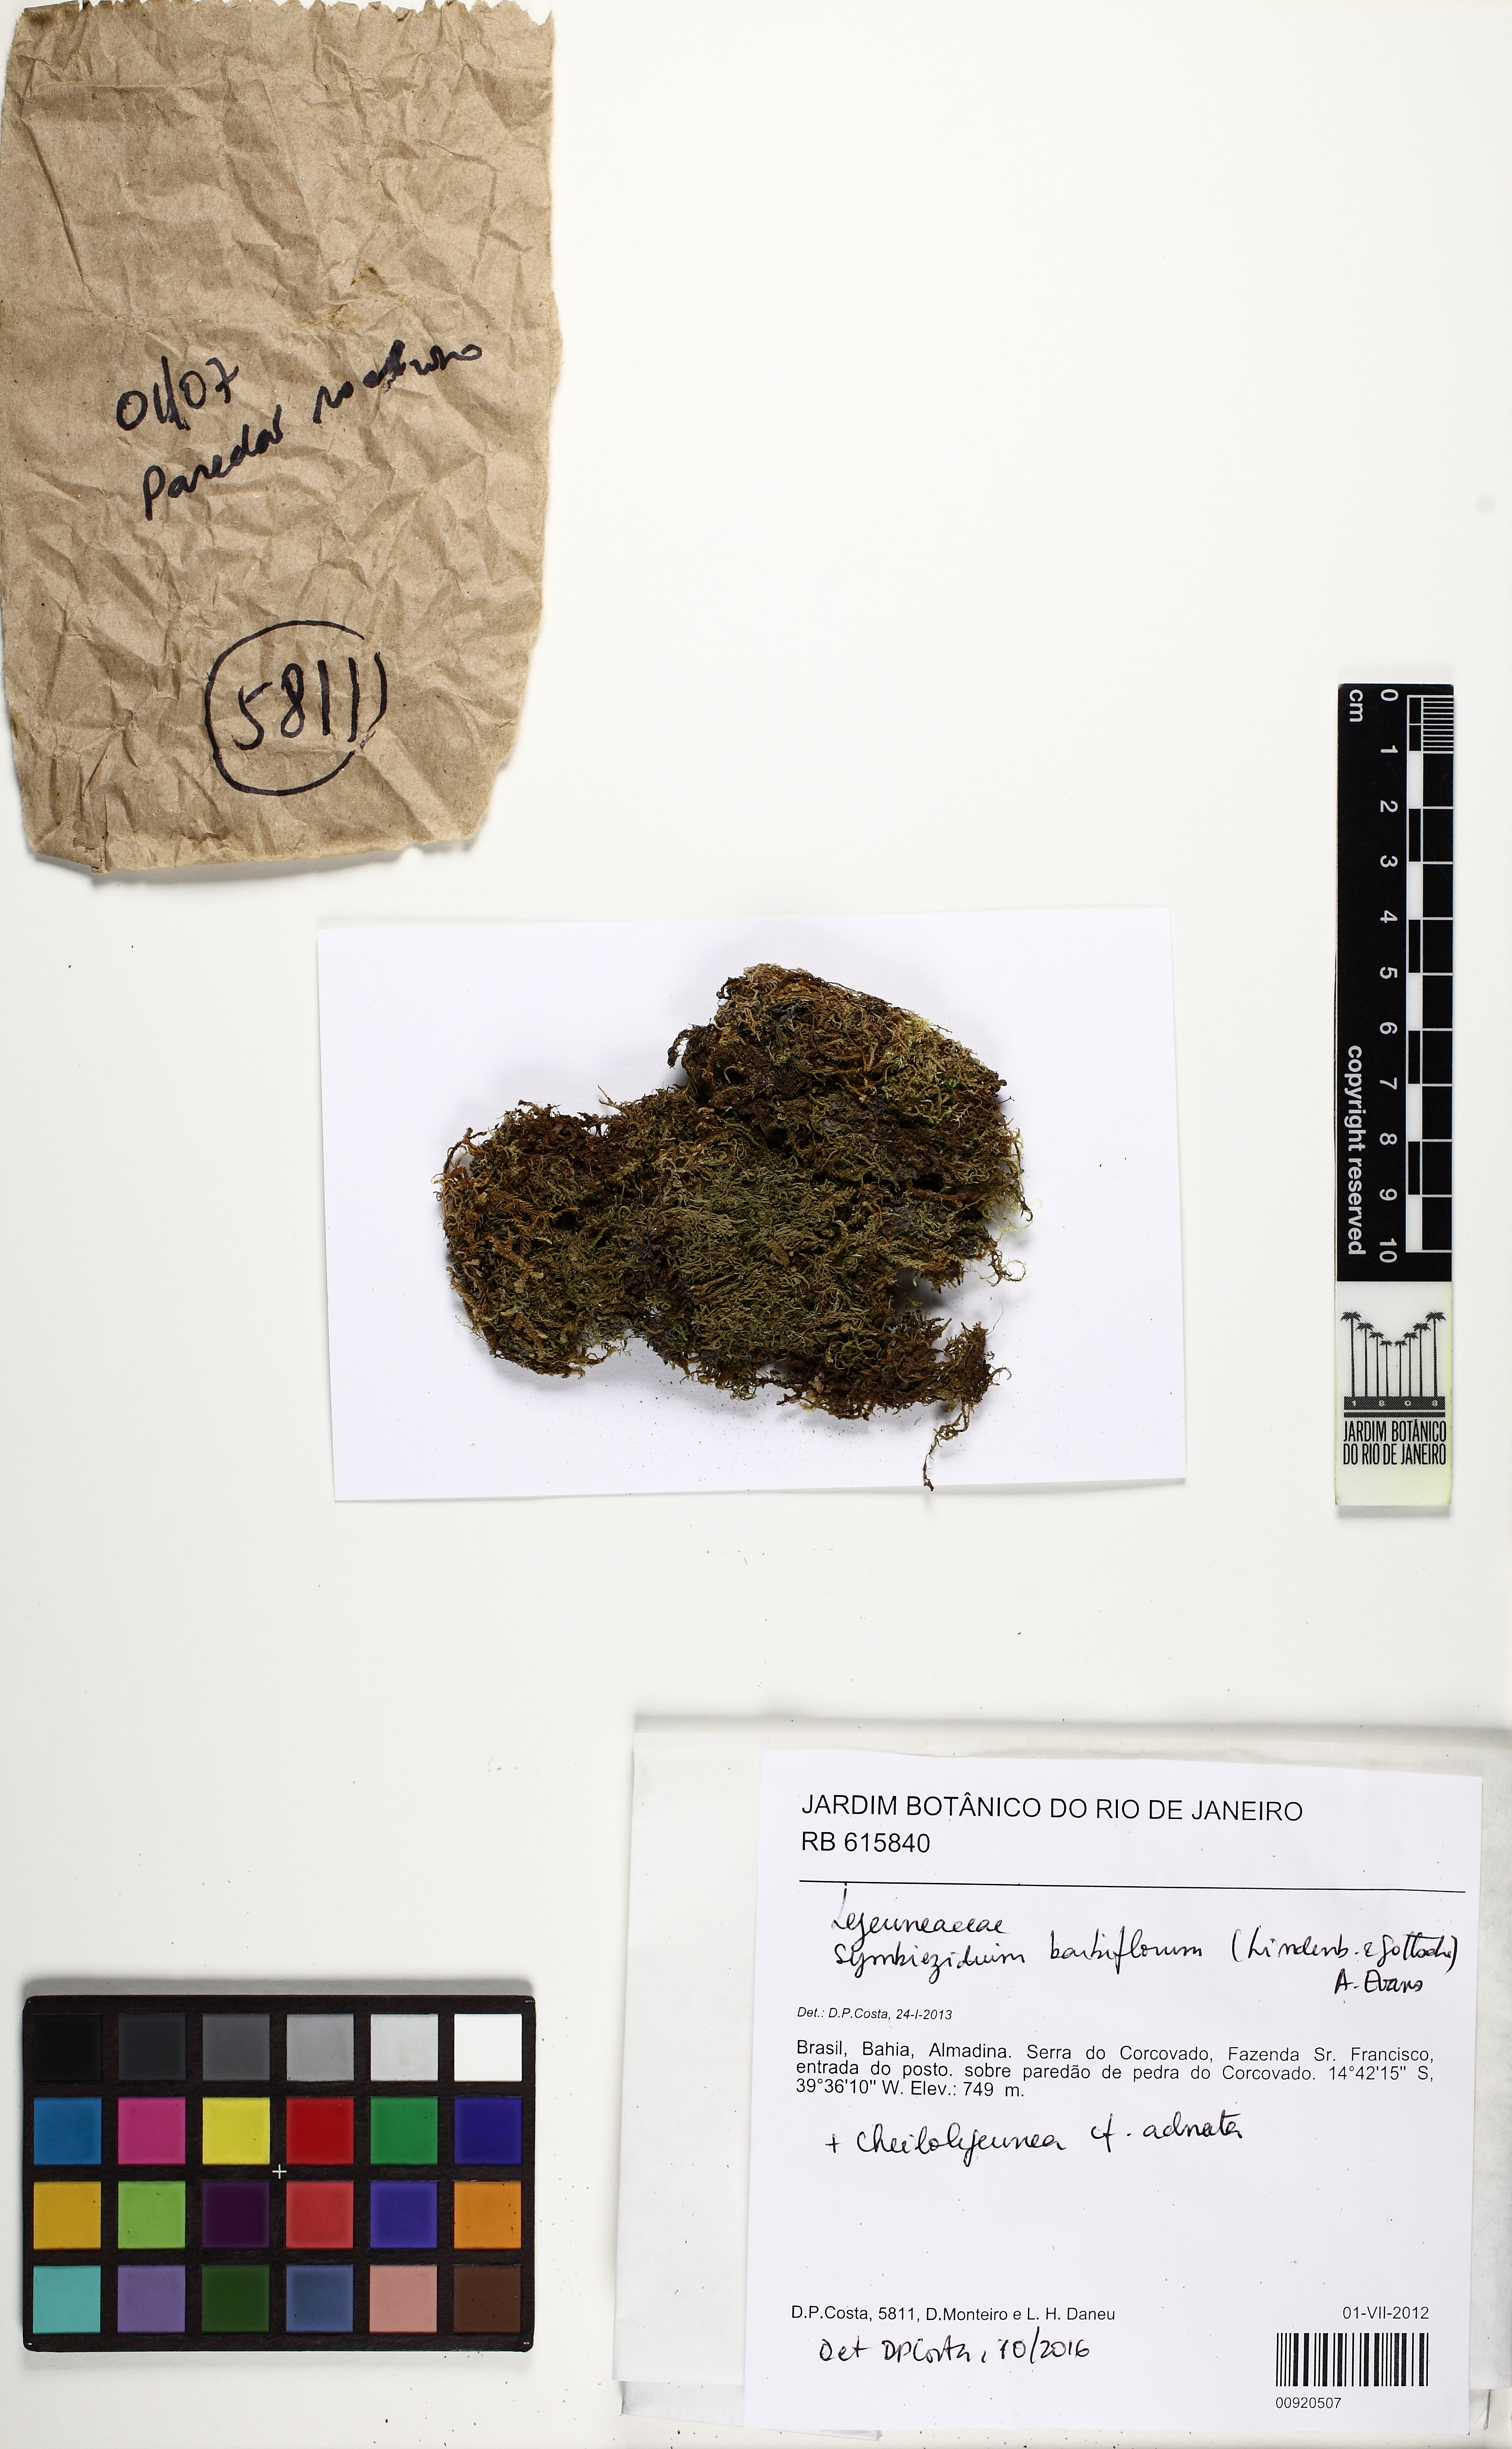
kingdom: Plantae
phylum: Marchantiophyta
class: Jungermanniopsida
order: Porellales
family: Lejeuneaceae
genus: Symbiezidium
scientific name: Symbiezidium barbiflorum
